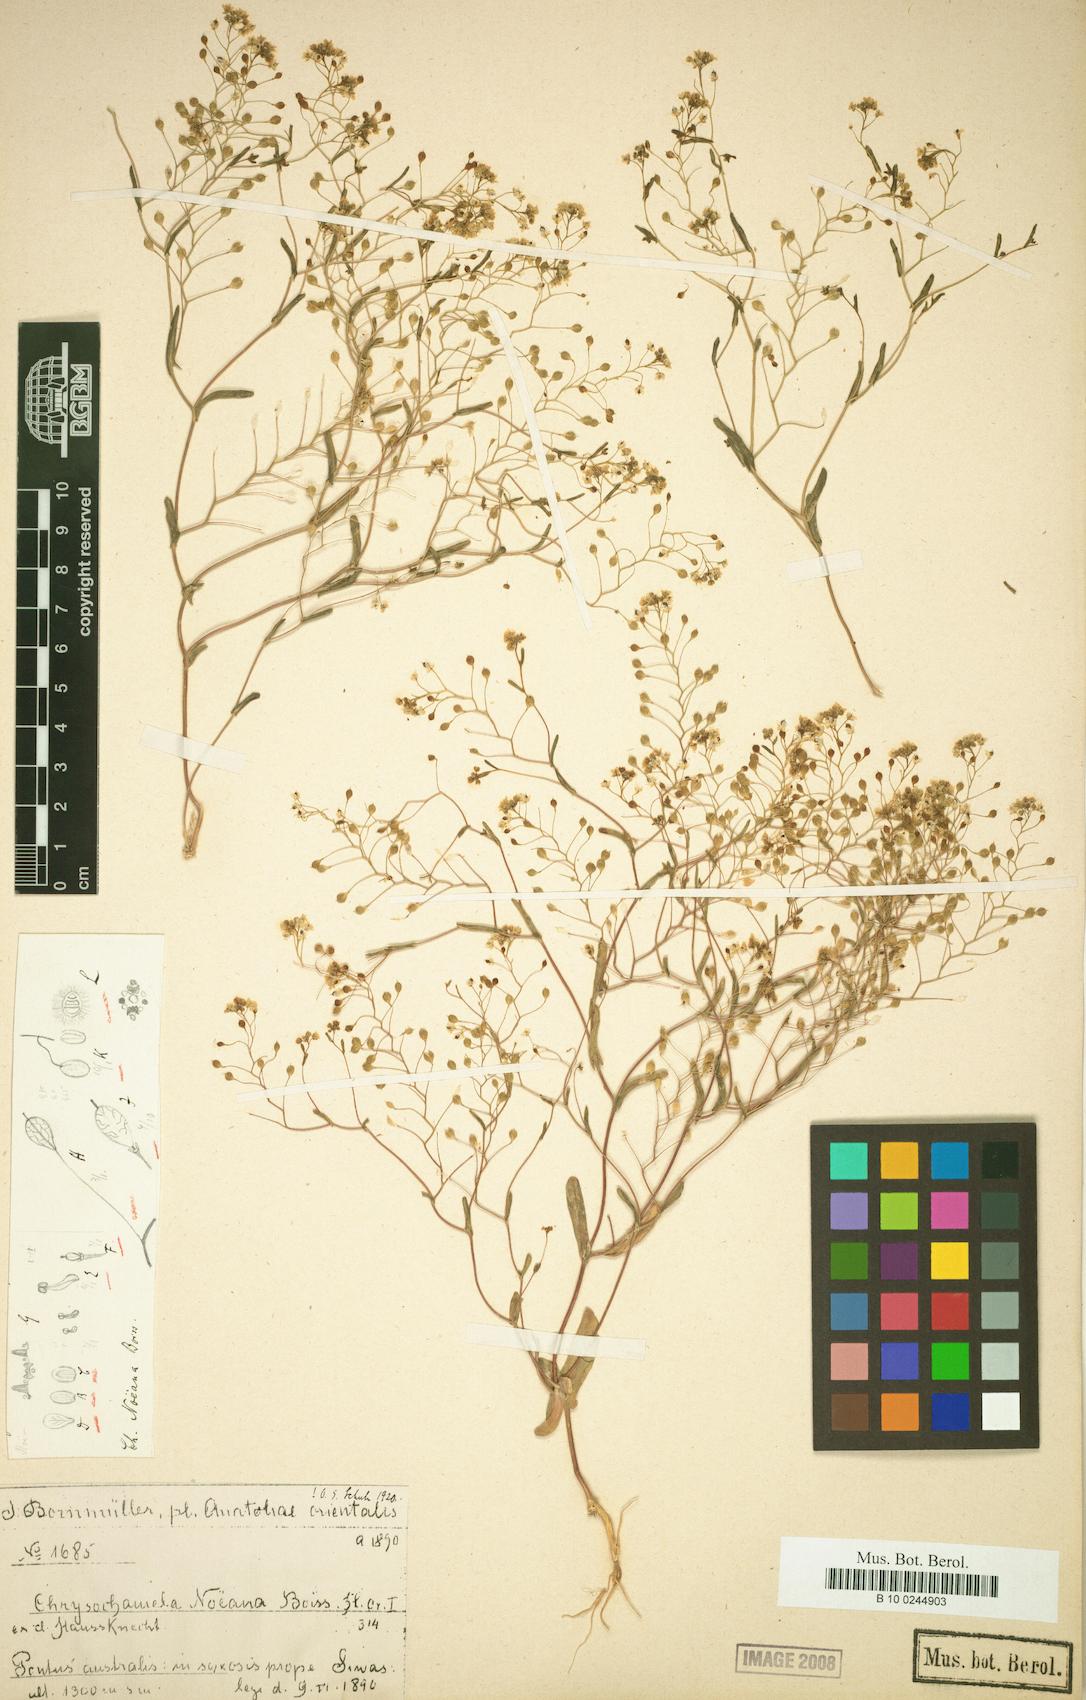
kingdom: Plantae
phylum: Tracheophyta
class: Magnoliopsida
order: Brassicales
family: Brassicaceae
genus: Chrysochamela
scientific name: Chrysochamela noeana
